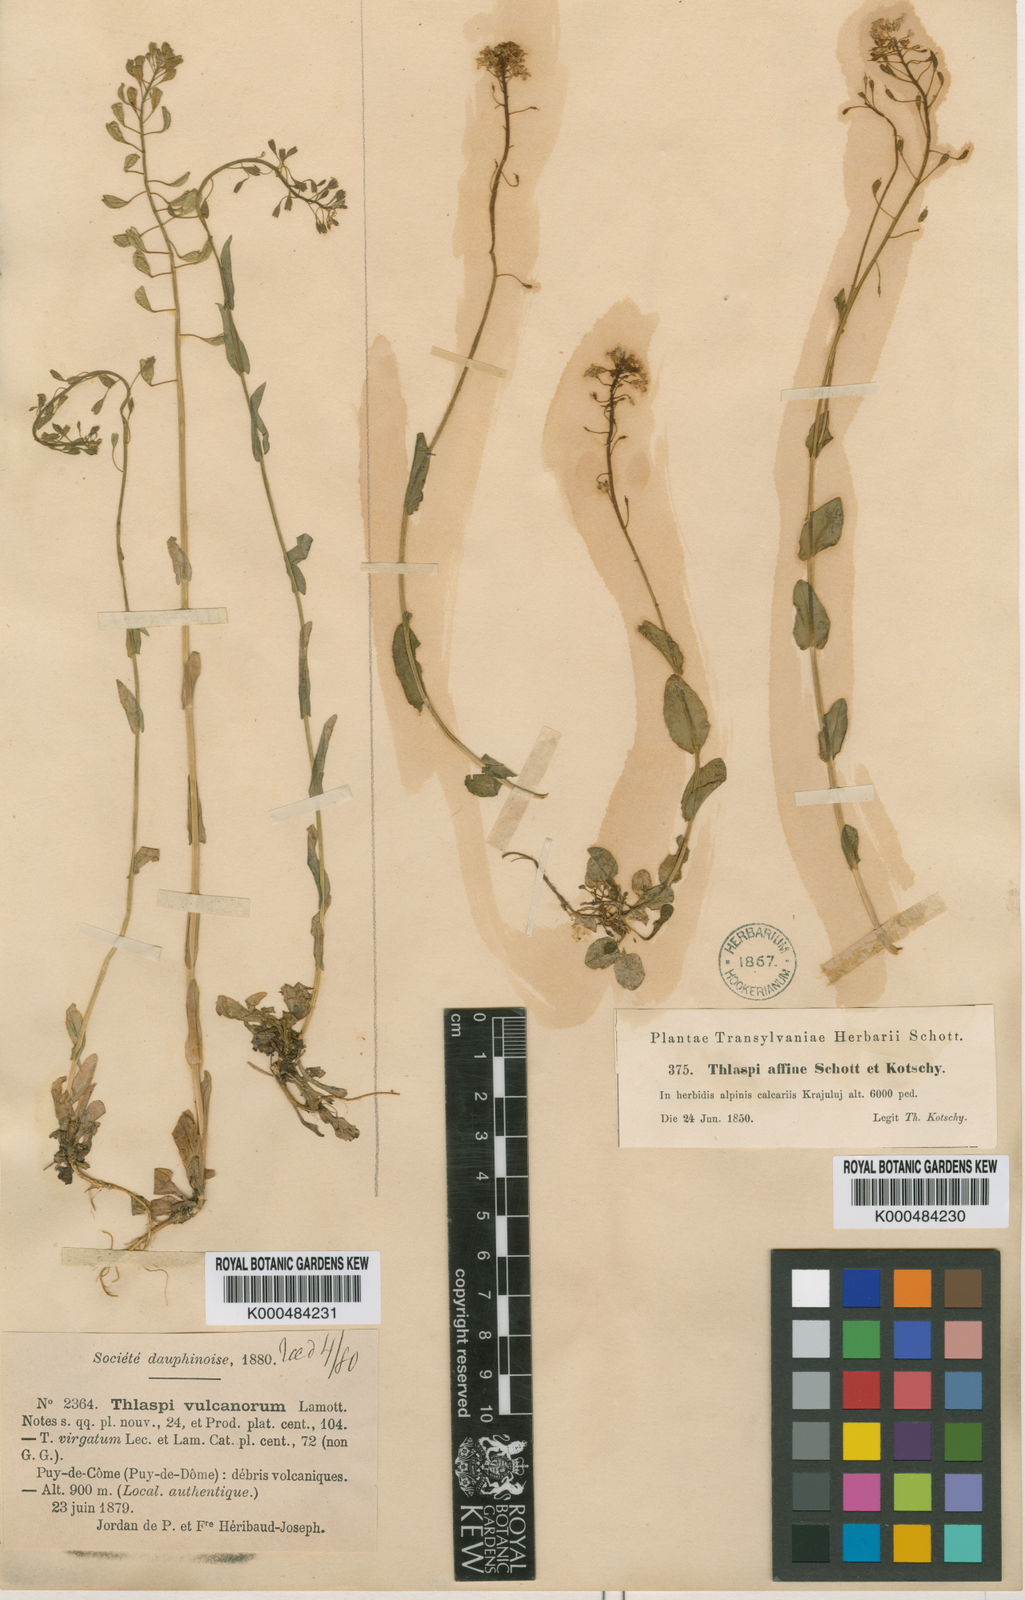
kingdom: Plantae
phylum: Tracheophyta
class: Magnoliopsida
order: Brassicales
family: Brassicaceae
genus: Noccaea
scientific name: Noccaea alpestris
